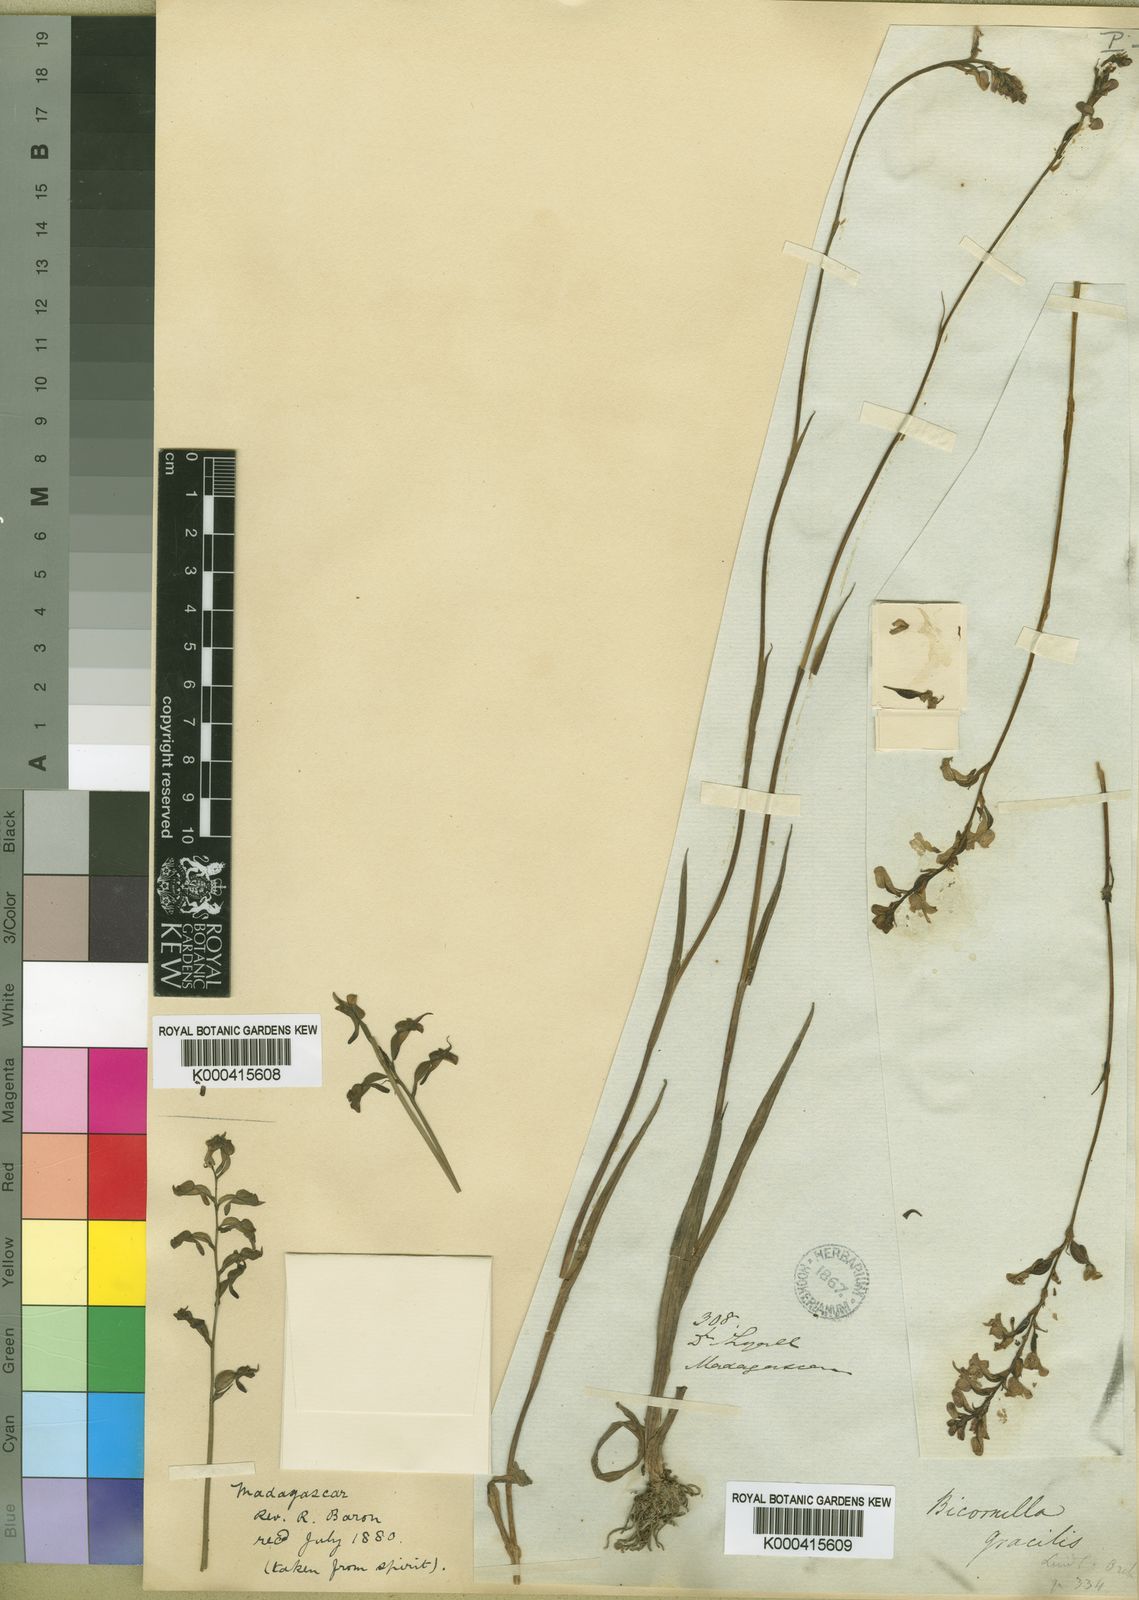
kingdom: Plantae
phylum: Tracheophyta
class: Liliopsida
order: Asparagales
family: Orchidaceae
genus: Cynorkis
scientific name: Cynorkis lindleyana
